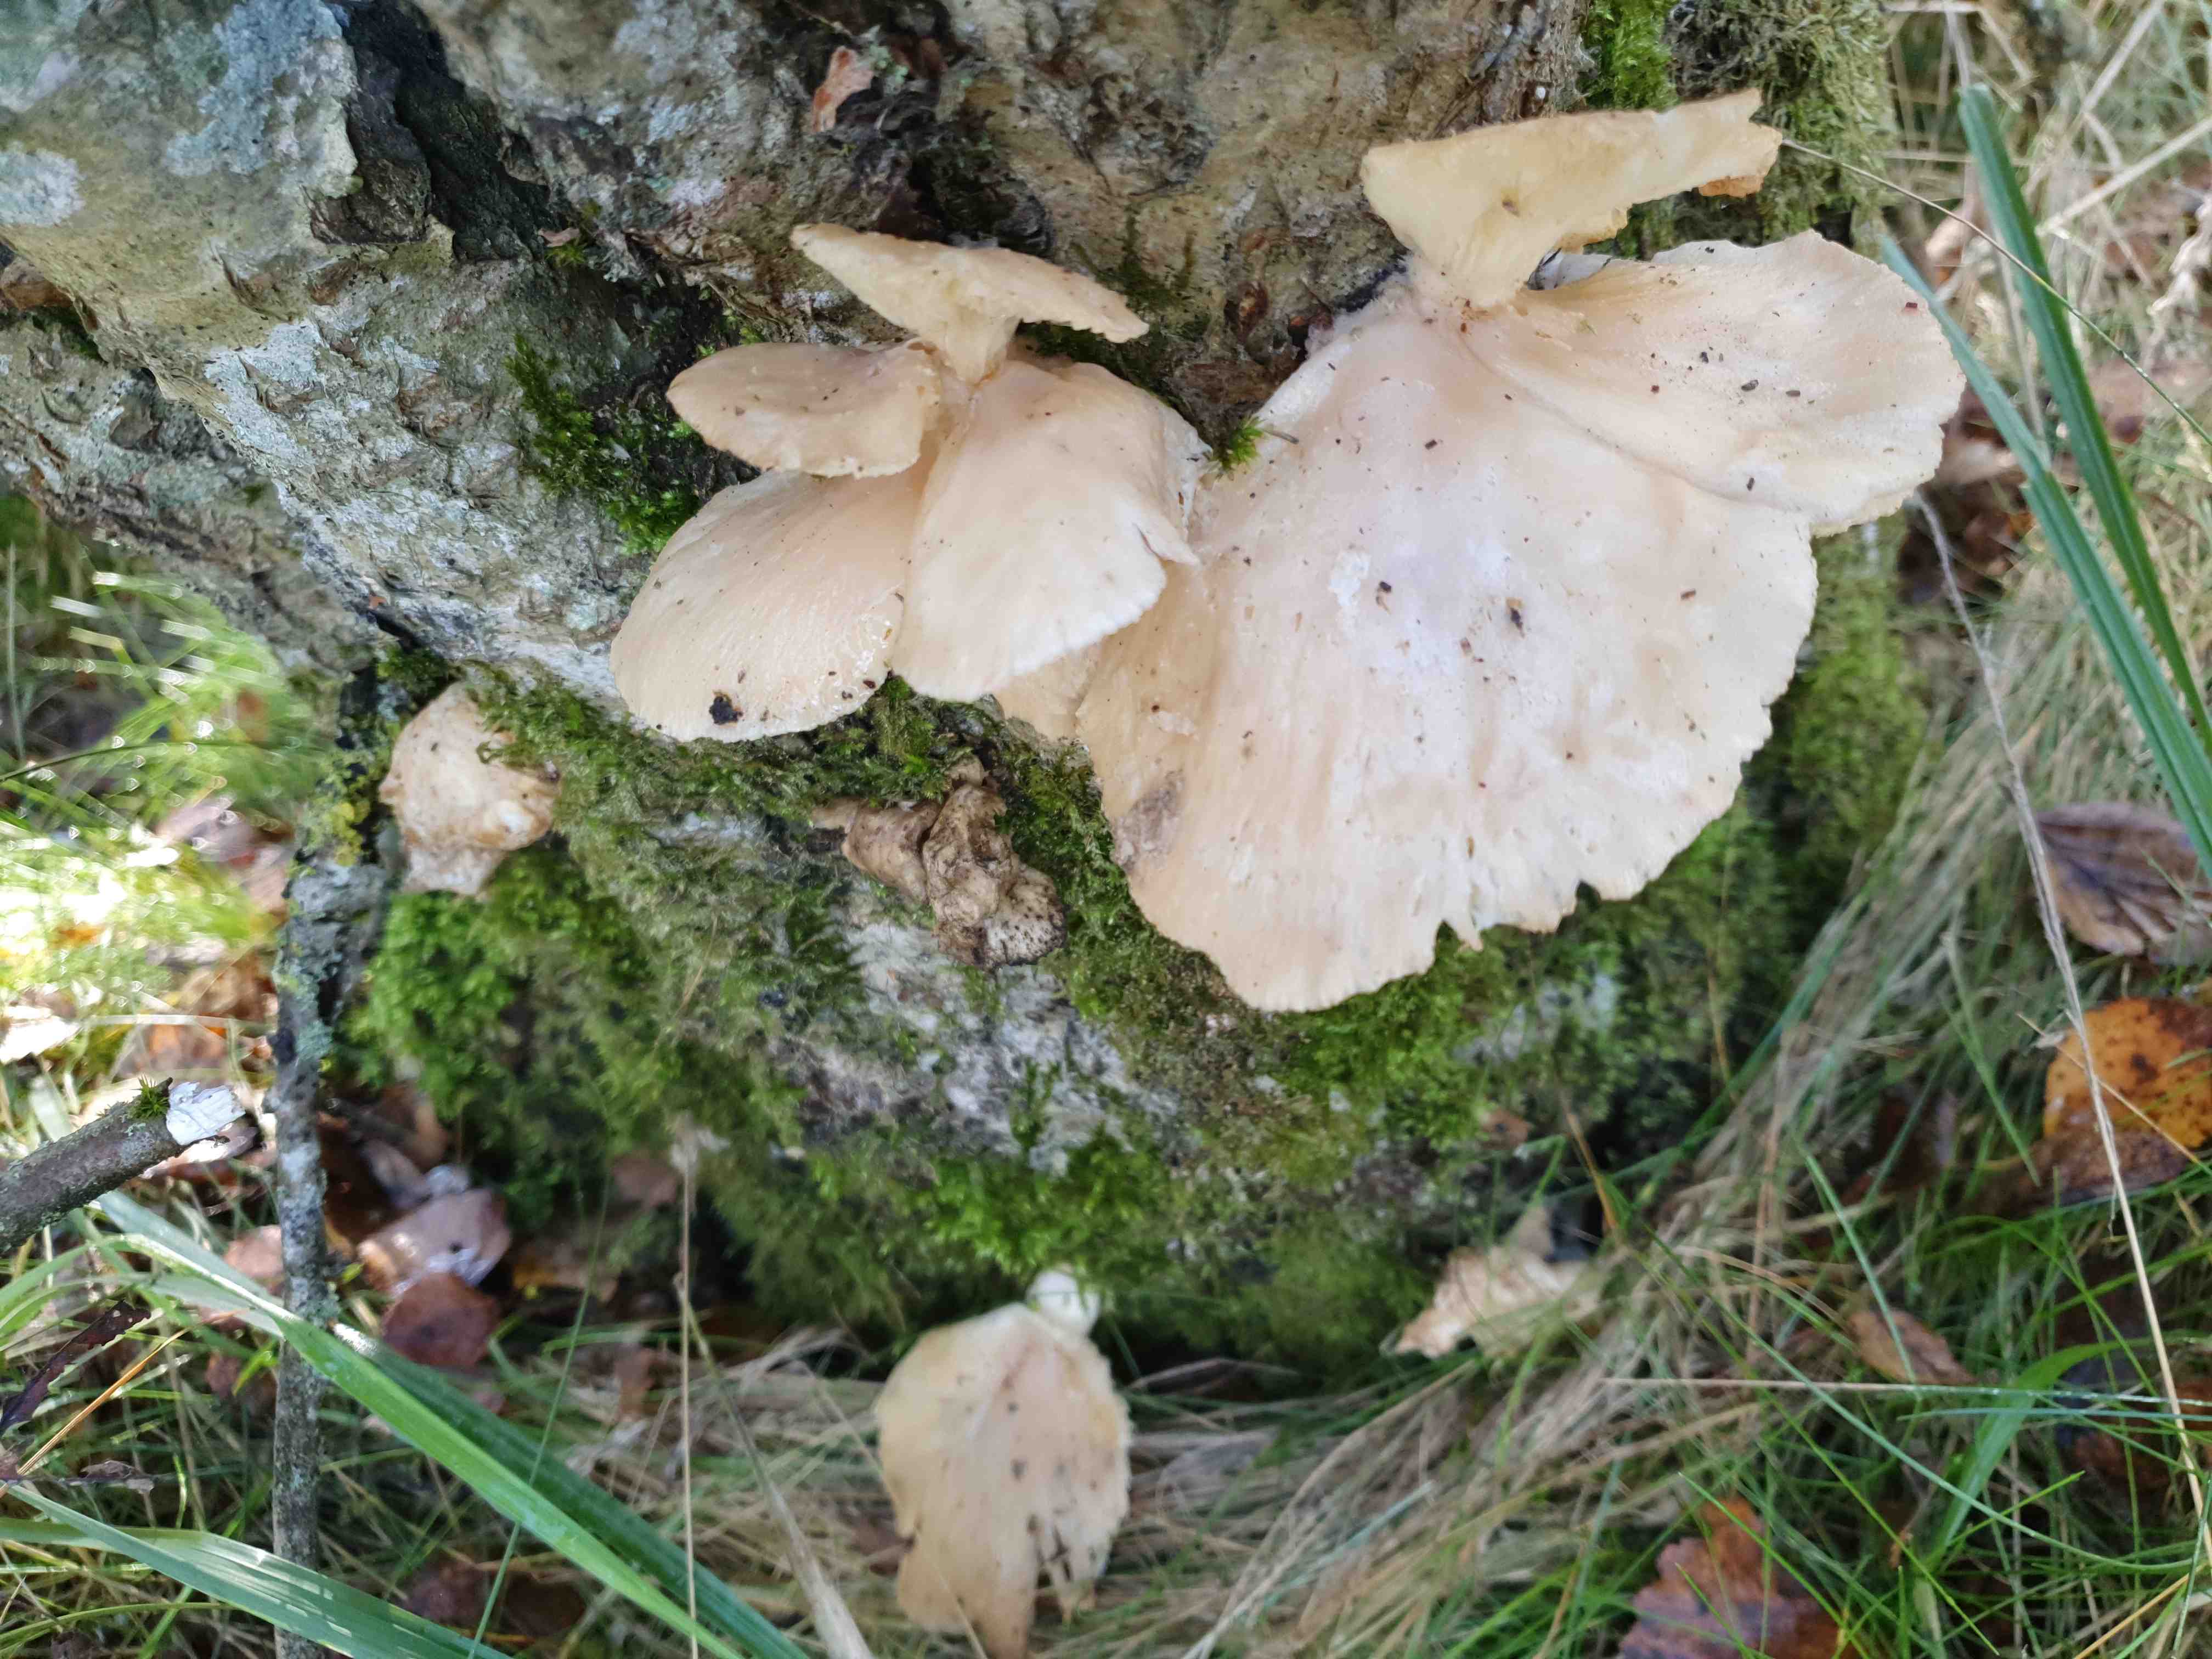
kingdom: Fungi
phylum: Basidiomycota
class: Agaricomycetes
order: Agaricales
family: Pleurotaceae
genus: Pleurotus
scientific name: Pleurotus pulmonarius
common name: sommer-østershat
